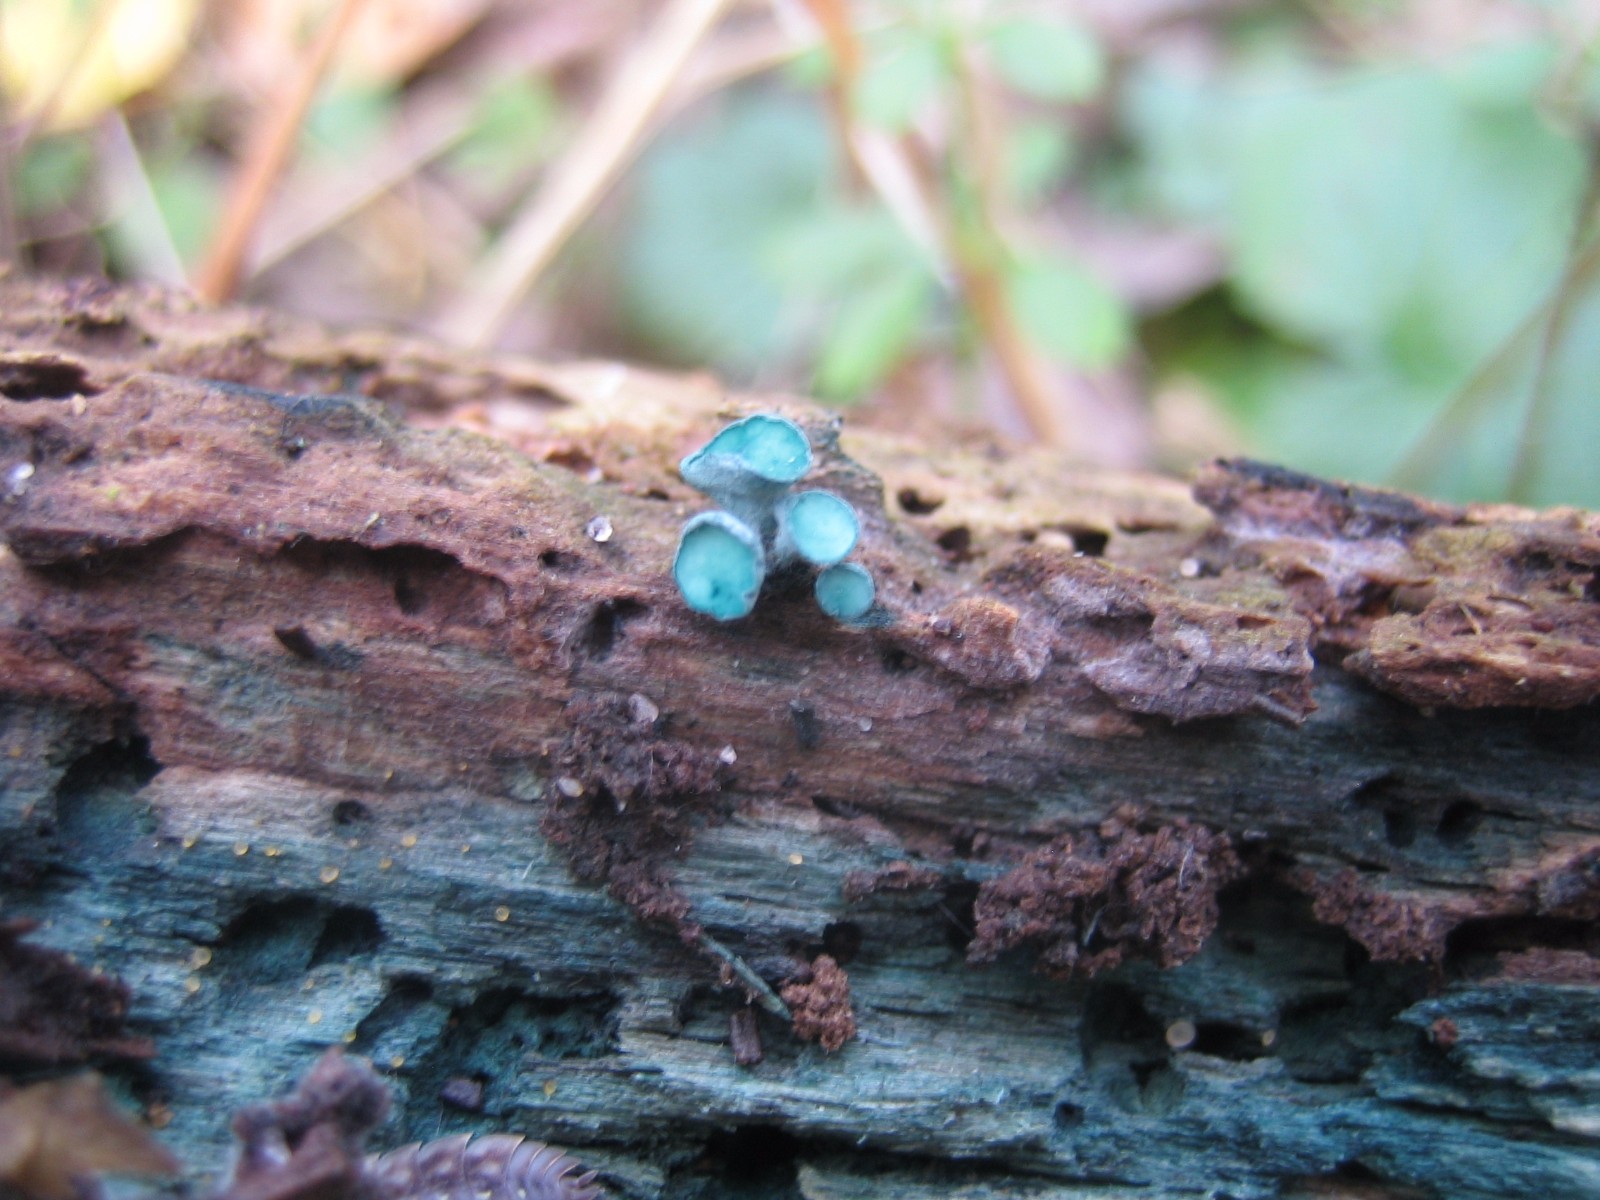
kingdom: Fungi
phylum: Ascomycota
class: Leotiomycetes
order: Helotiales
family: Chlorociboriaceae
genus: Chlorociboria
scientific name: Chlorociboria aeruginascens
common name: almindelig grønskive
